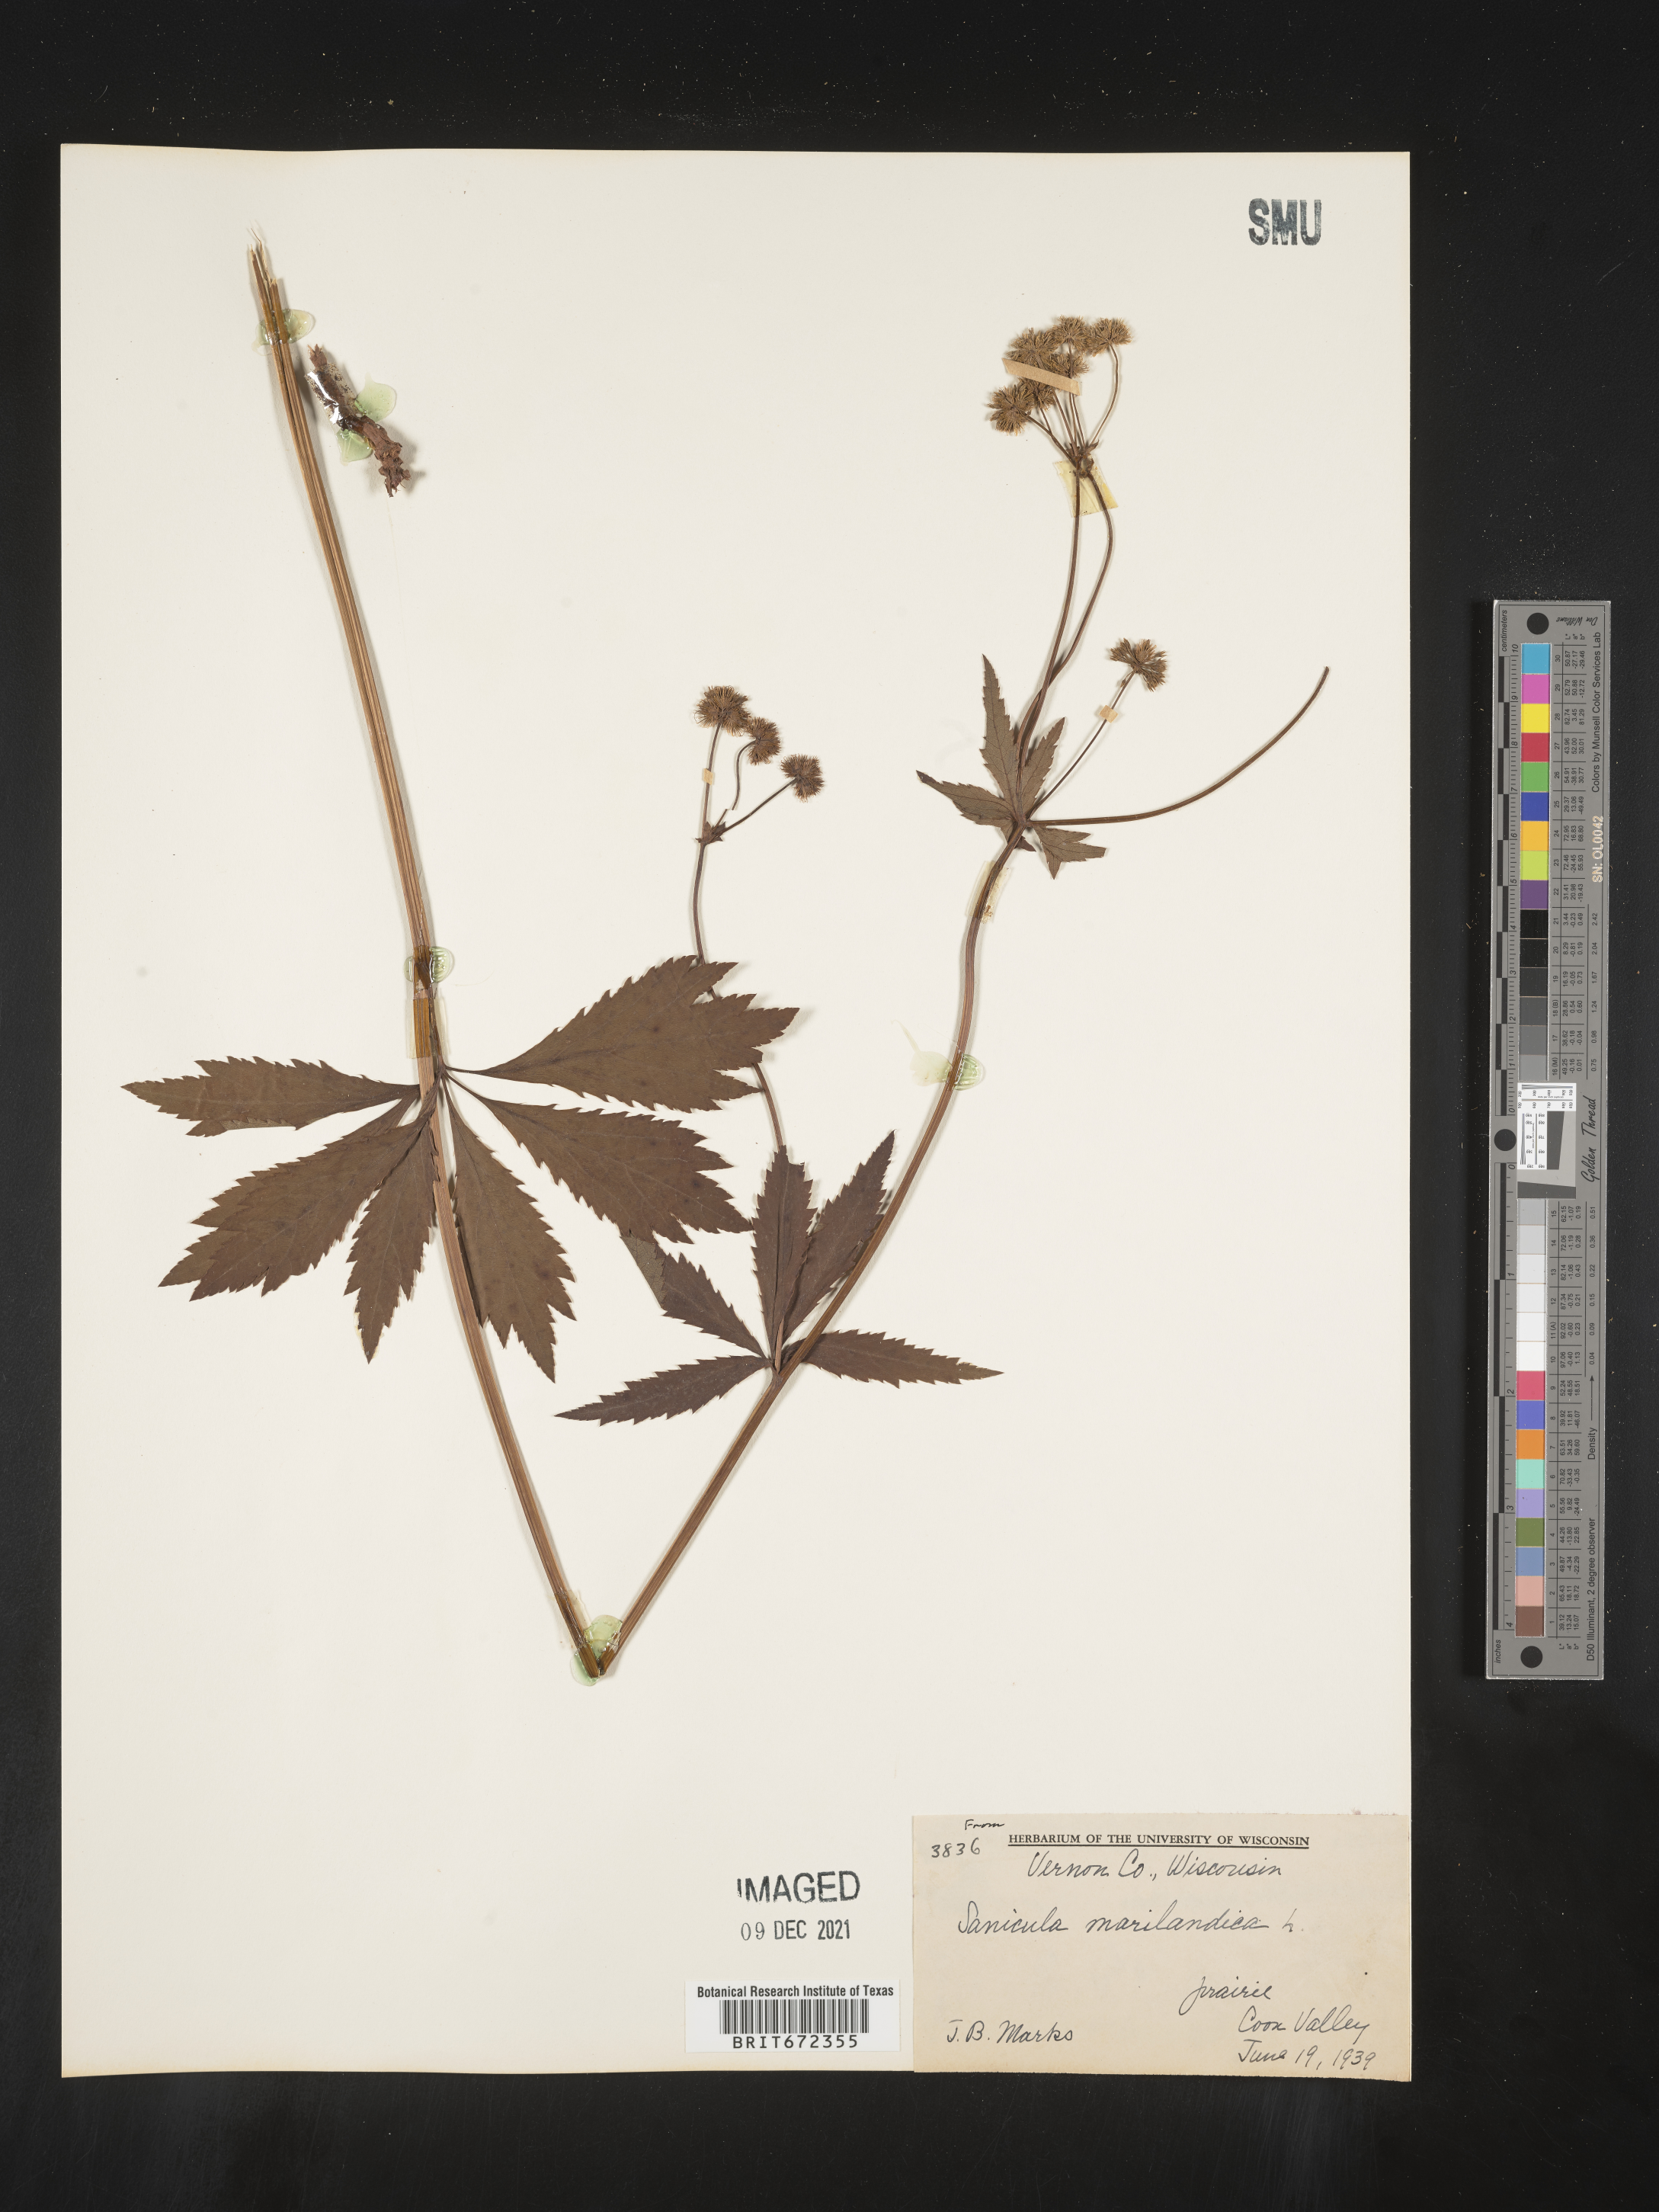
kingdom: Plantae
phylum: Tracheophyta
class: Magnoliopsida
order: Apiales
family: Apiaceae
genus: Sanicula
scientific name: Sanicula marilandica
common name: Black snakeroot
